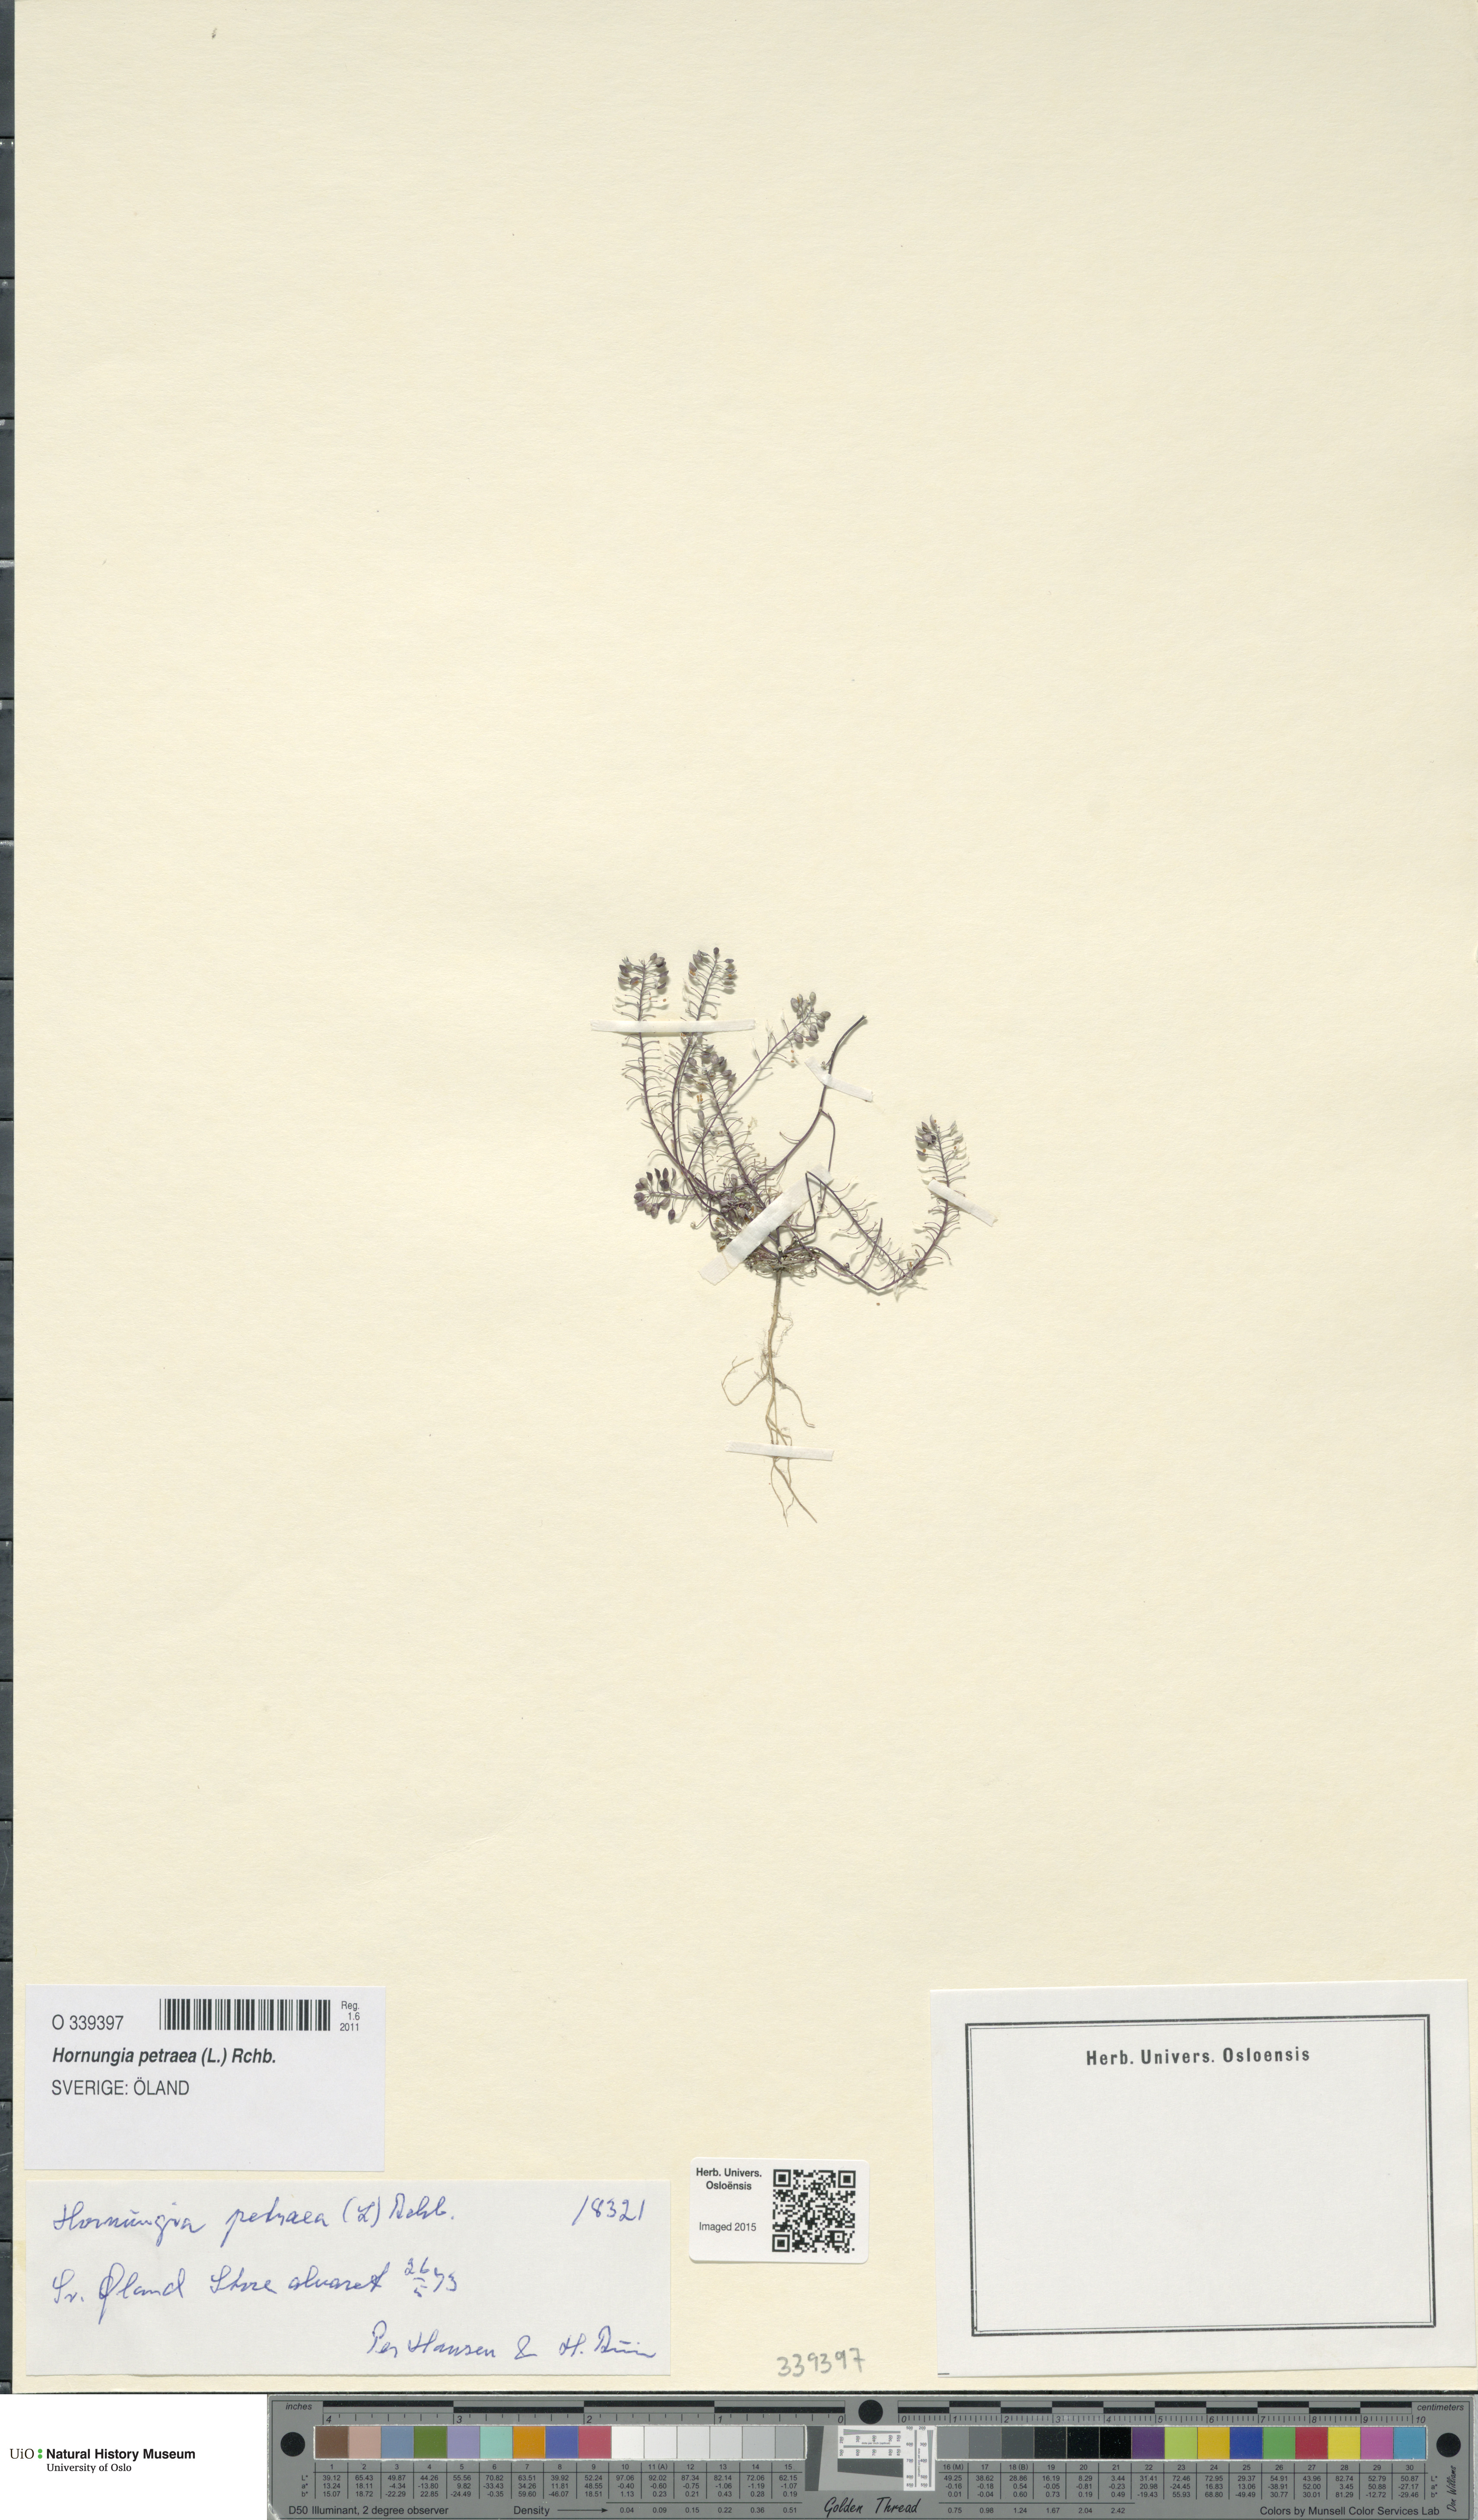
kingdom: Plantae
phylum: Tracheophyta
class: Magnoliopsida
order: Brassicales
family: Brassicaceae
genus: Hornungia
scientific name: Hornungia petraea
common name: Hutchinsia
